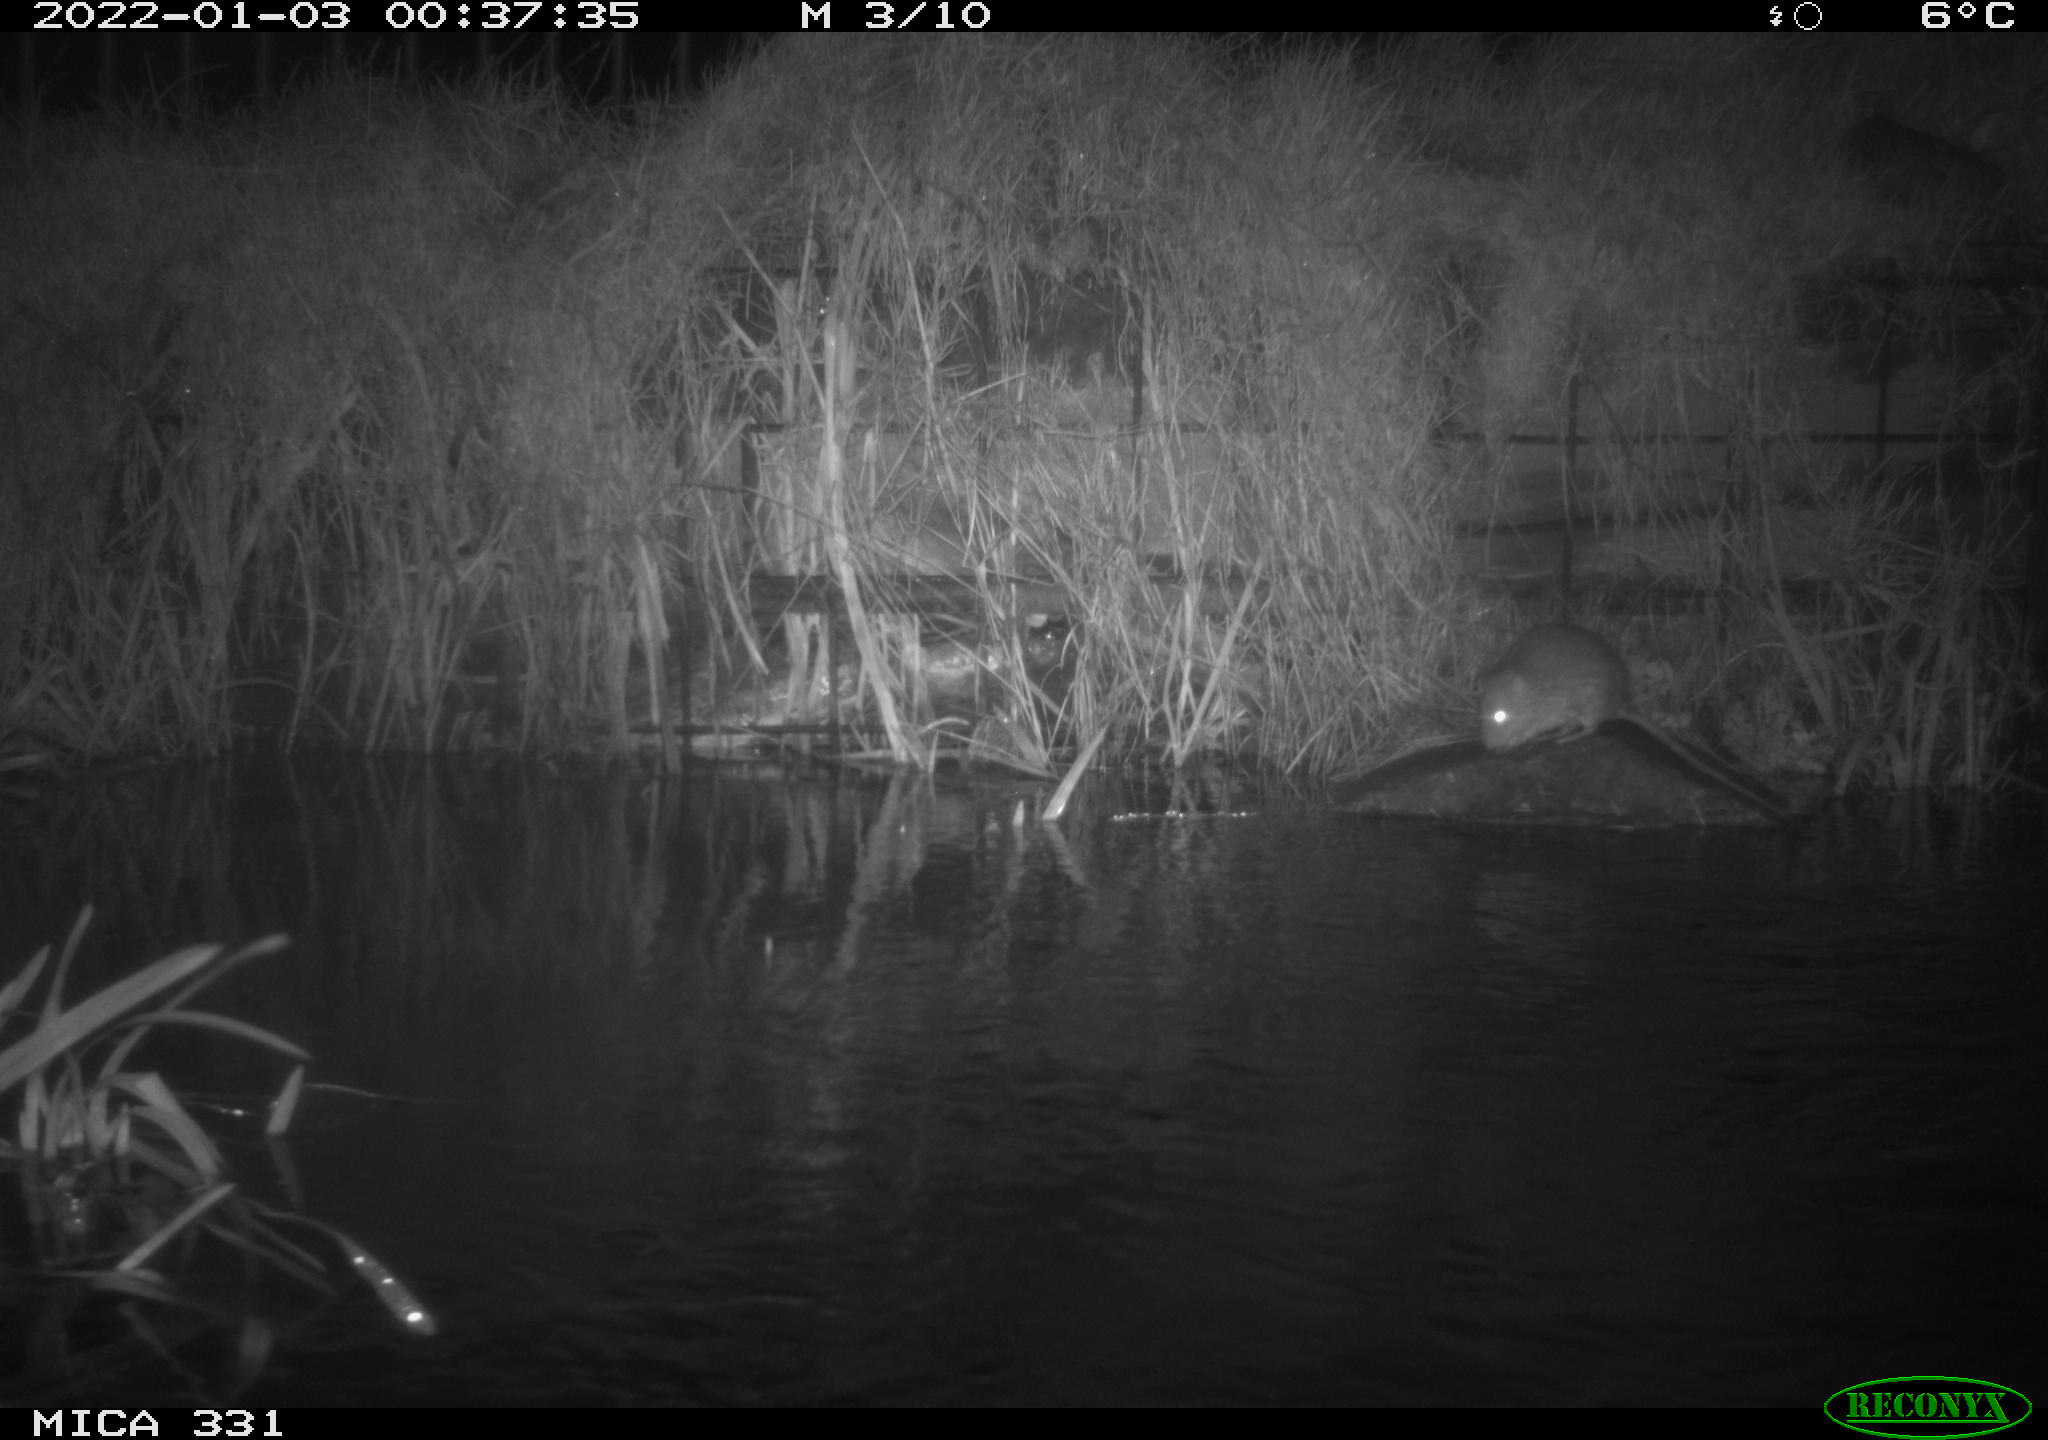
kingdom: Animalia
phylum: Chordata
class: Mammalia
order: Rodentia
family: Muridae
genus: Rattus
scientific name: Rattus norvegicus
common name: Brown rat
